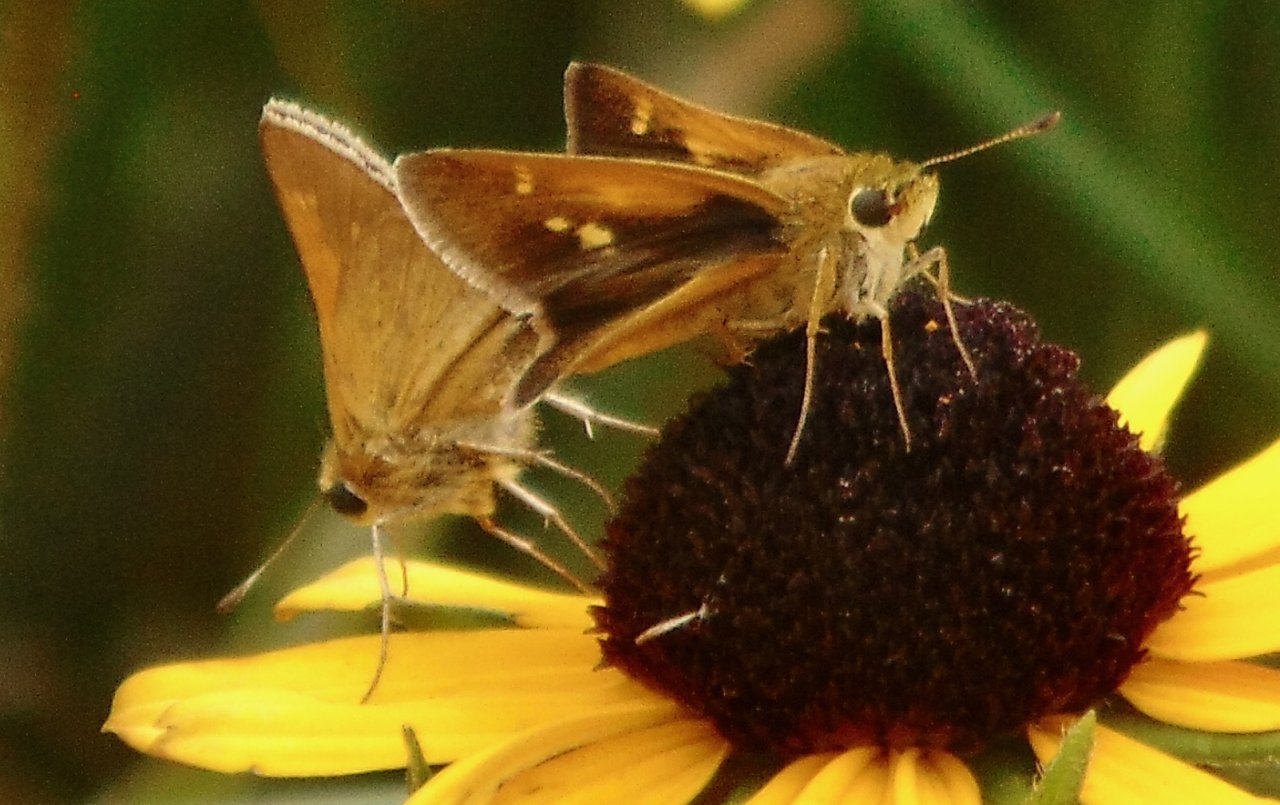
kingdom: Animalia
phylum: Arthropoda
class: Insecta
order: Lepidoptera
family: Hesperiidae
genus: Polites
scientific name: Polites themistocles
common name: Tawny-edged Skipper
